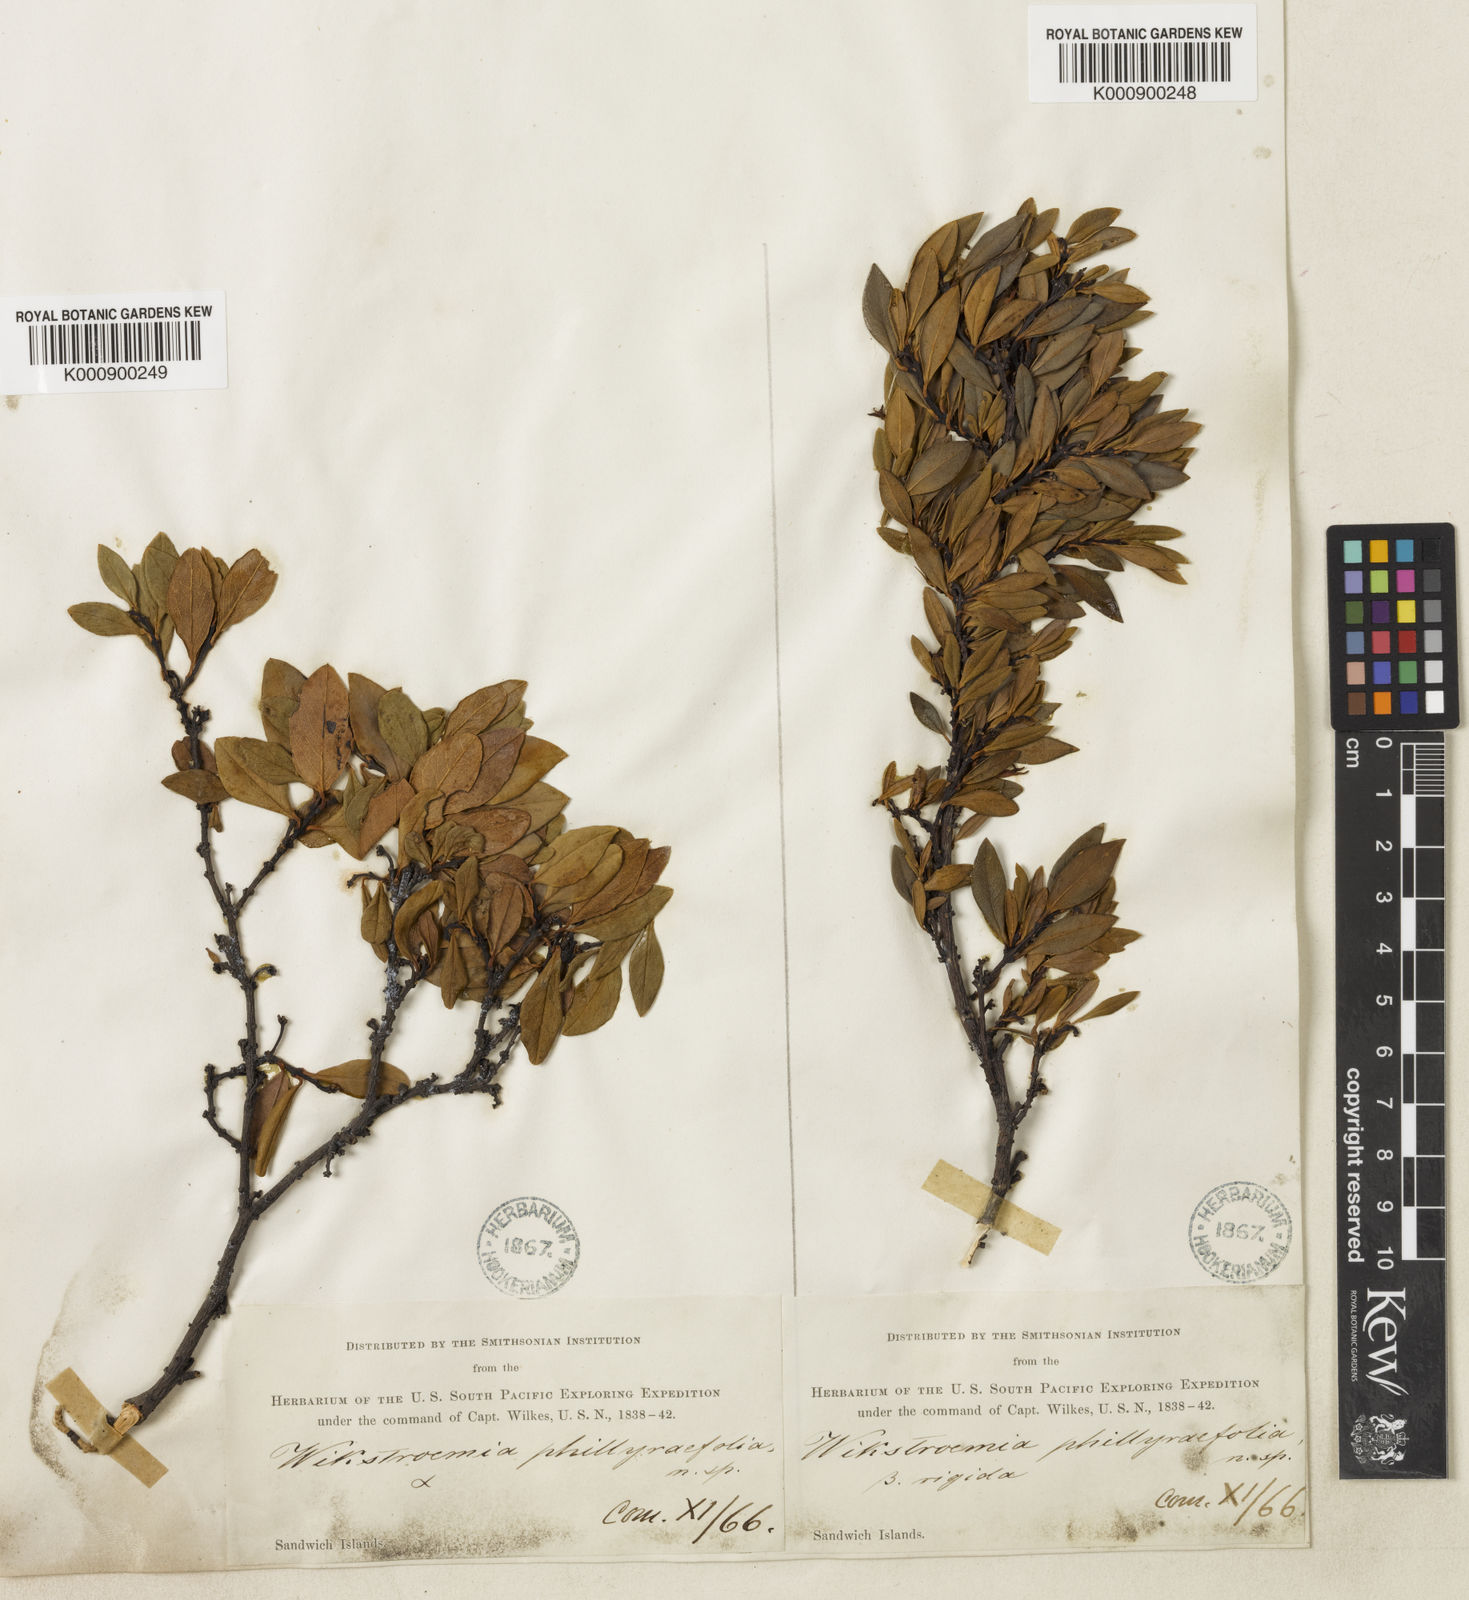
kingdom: Plantae
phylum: Tracheophyta
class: Magnoliopsida
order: Malvales
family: Thymelaeaceae
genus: Wikstroemia
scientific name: Wikstroemia phillyreifolia
